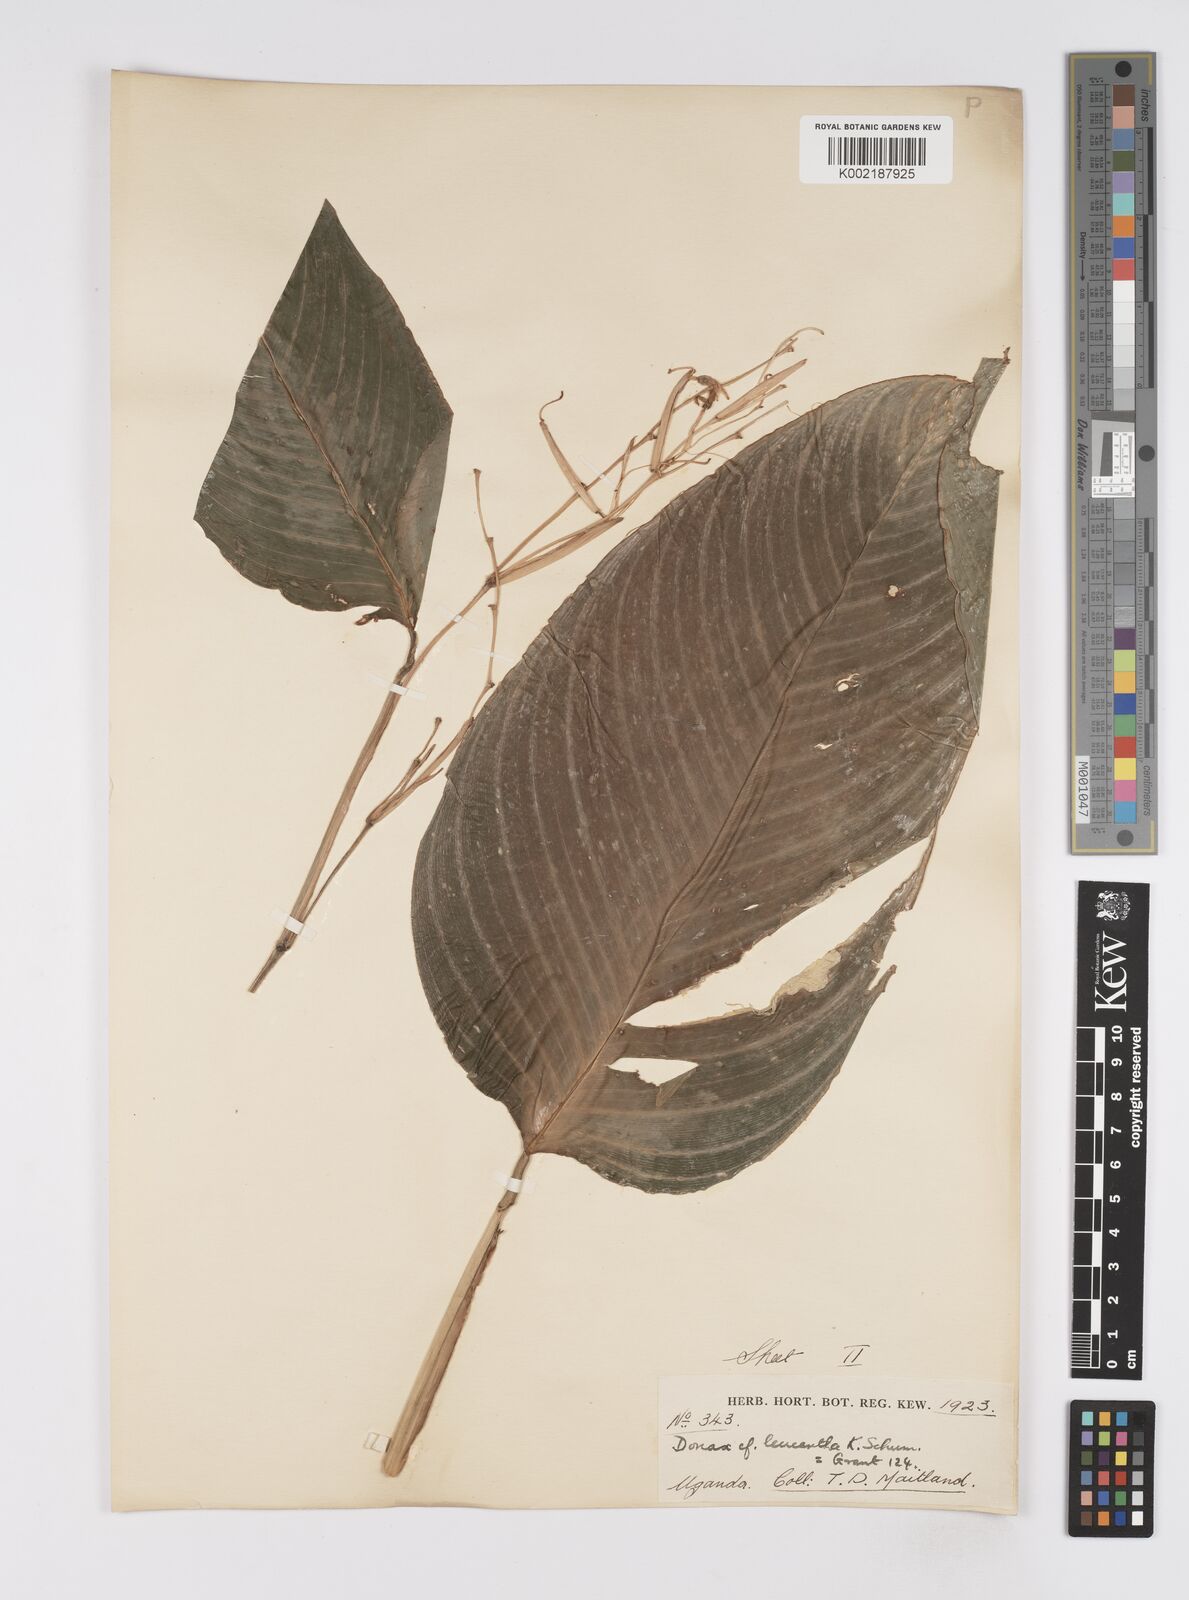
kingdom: Plantae
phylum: Tracheophyta
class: Liliopsida
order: Zingiberales
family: Marantaceae
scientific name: Marantaceae
